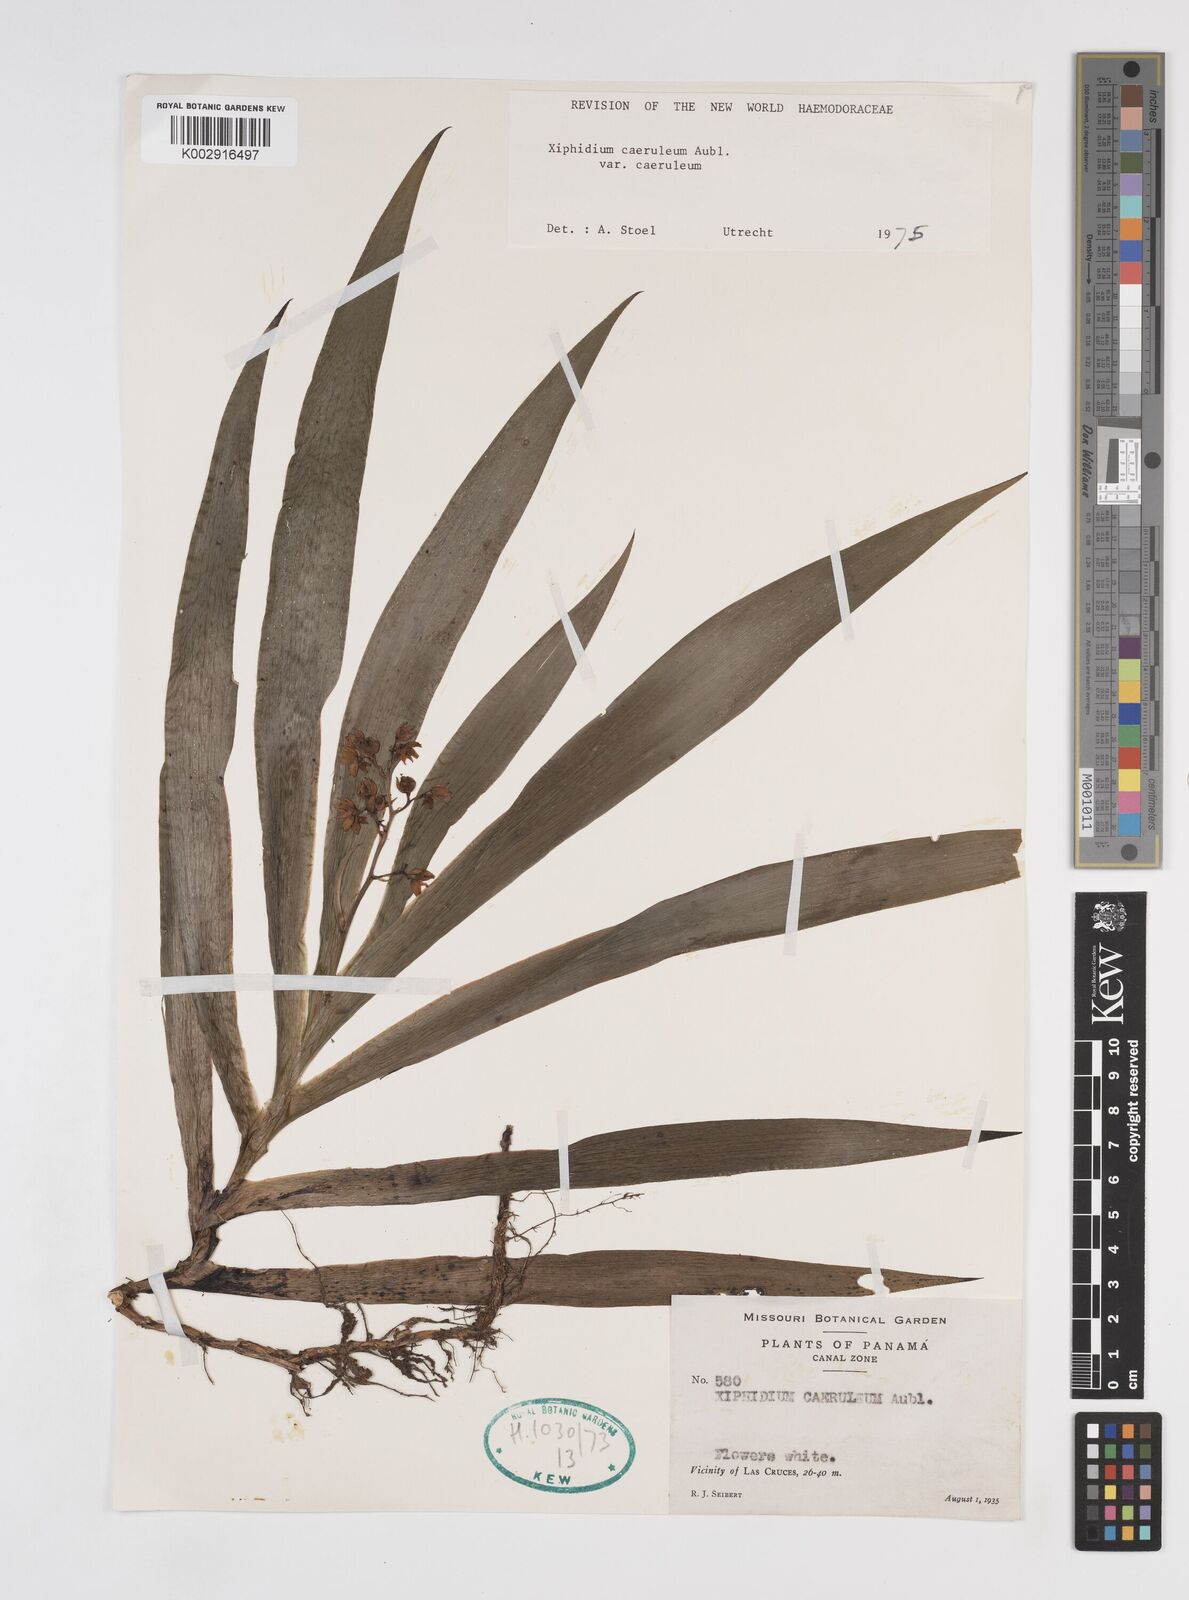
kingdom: Plantae
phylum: Tracheophyta
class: Liliopsida
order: Commelinales
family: Haemodoraceae
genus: Xiphidium
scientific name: Xiphidium caeruleum
